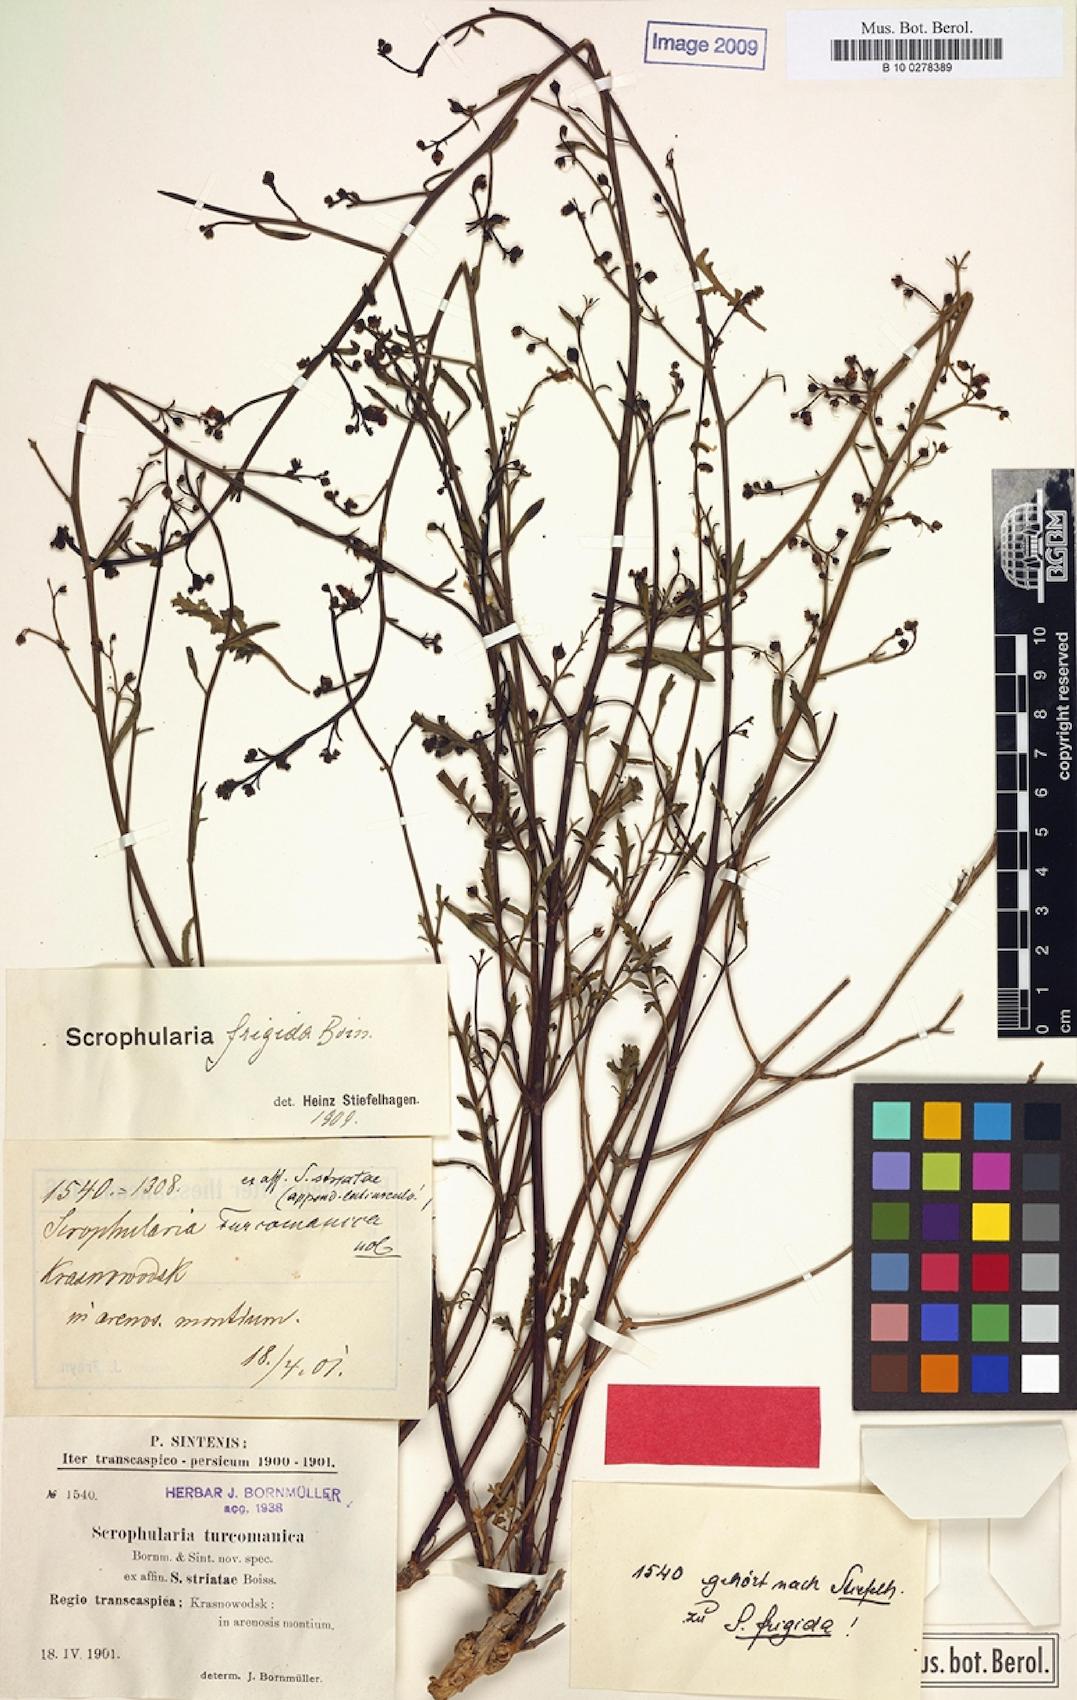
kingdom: Plantae
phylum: Tracheophyta
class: Magnoliopsida
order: Lamiales
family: Scrophulariaceae
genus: Scrophularia
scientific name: Scrophularia scoparia
